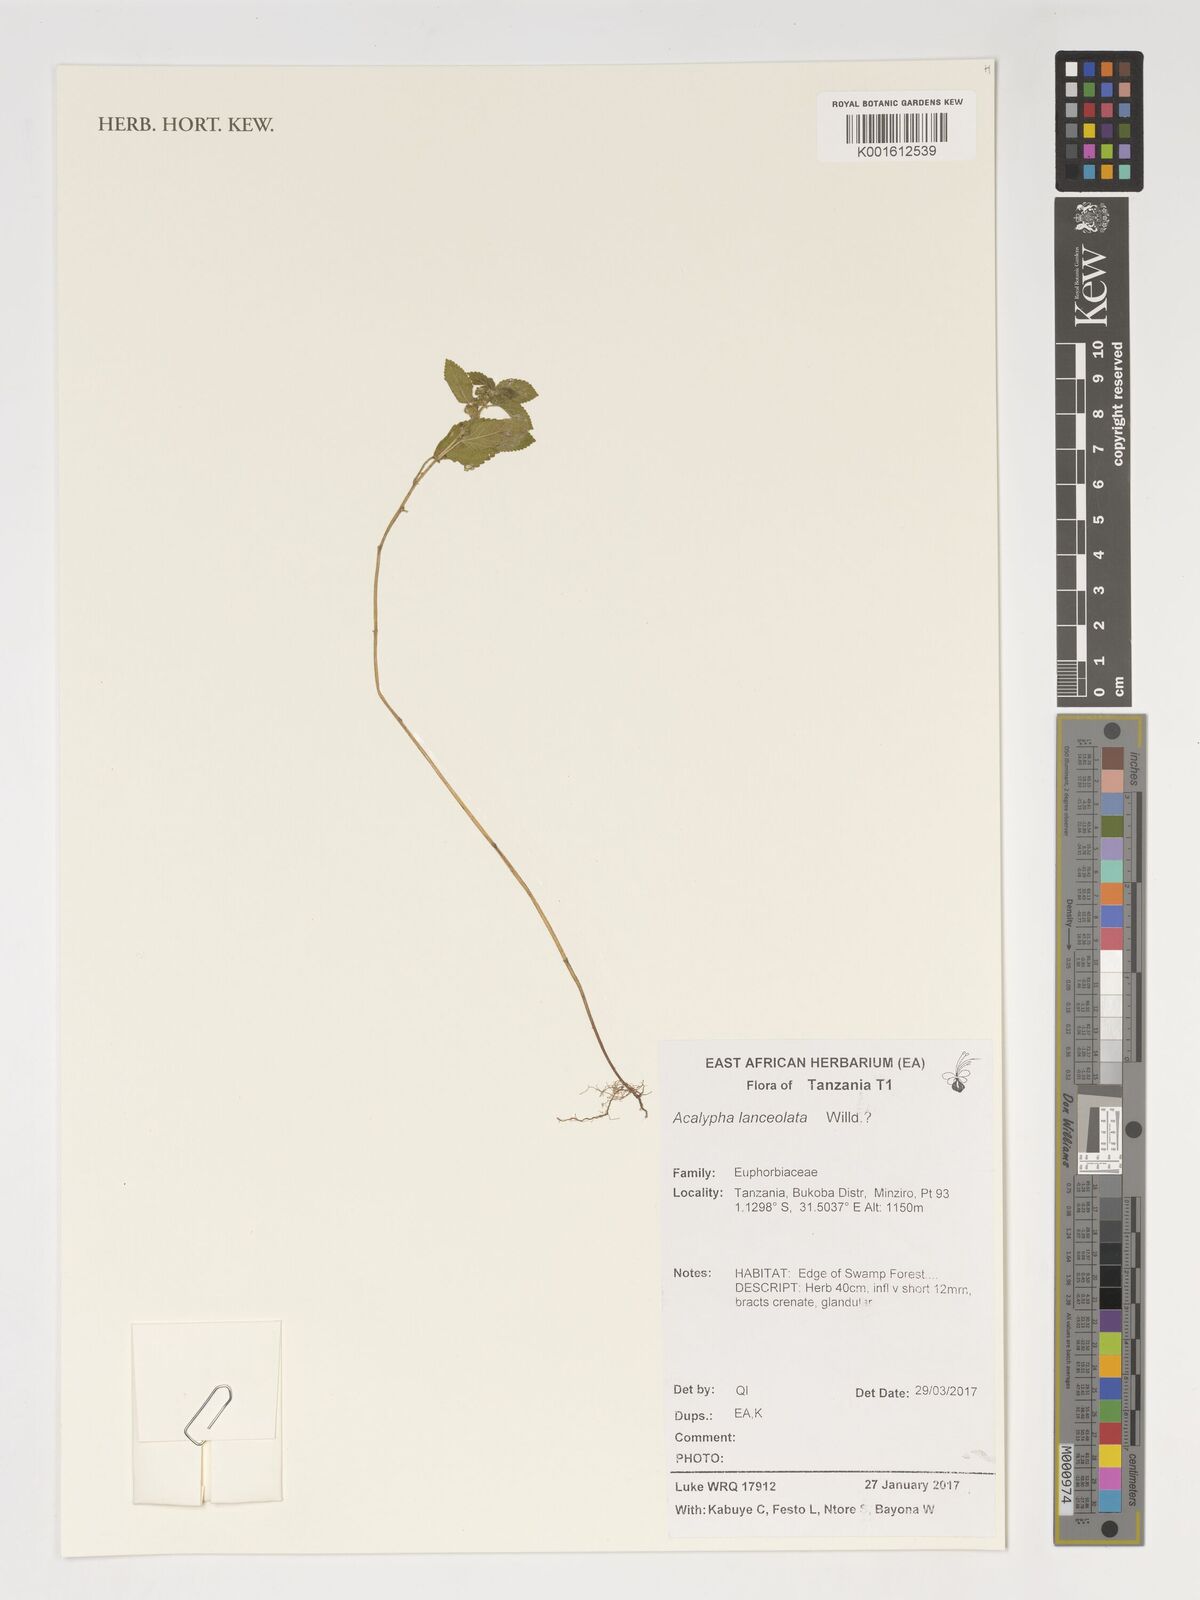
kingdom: Plantae
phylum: Tracheophyta
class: Magnoliopsida
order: Malpighiales
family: Euphorbiaceae
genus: Acalypha
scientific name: Acalypha lanceolata
